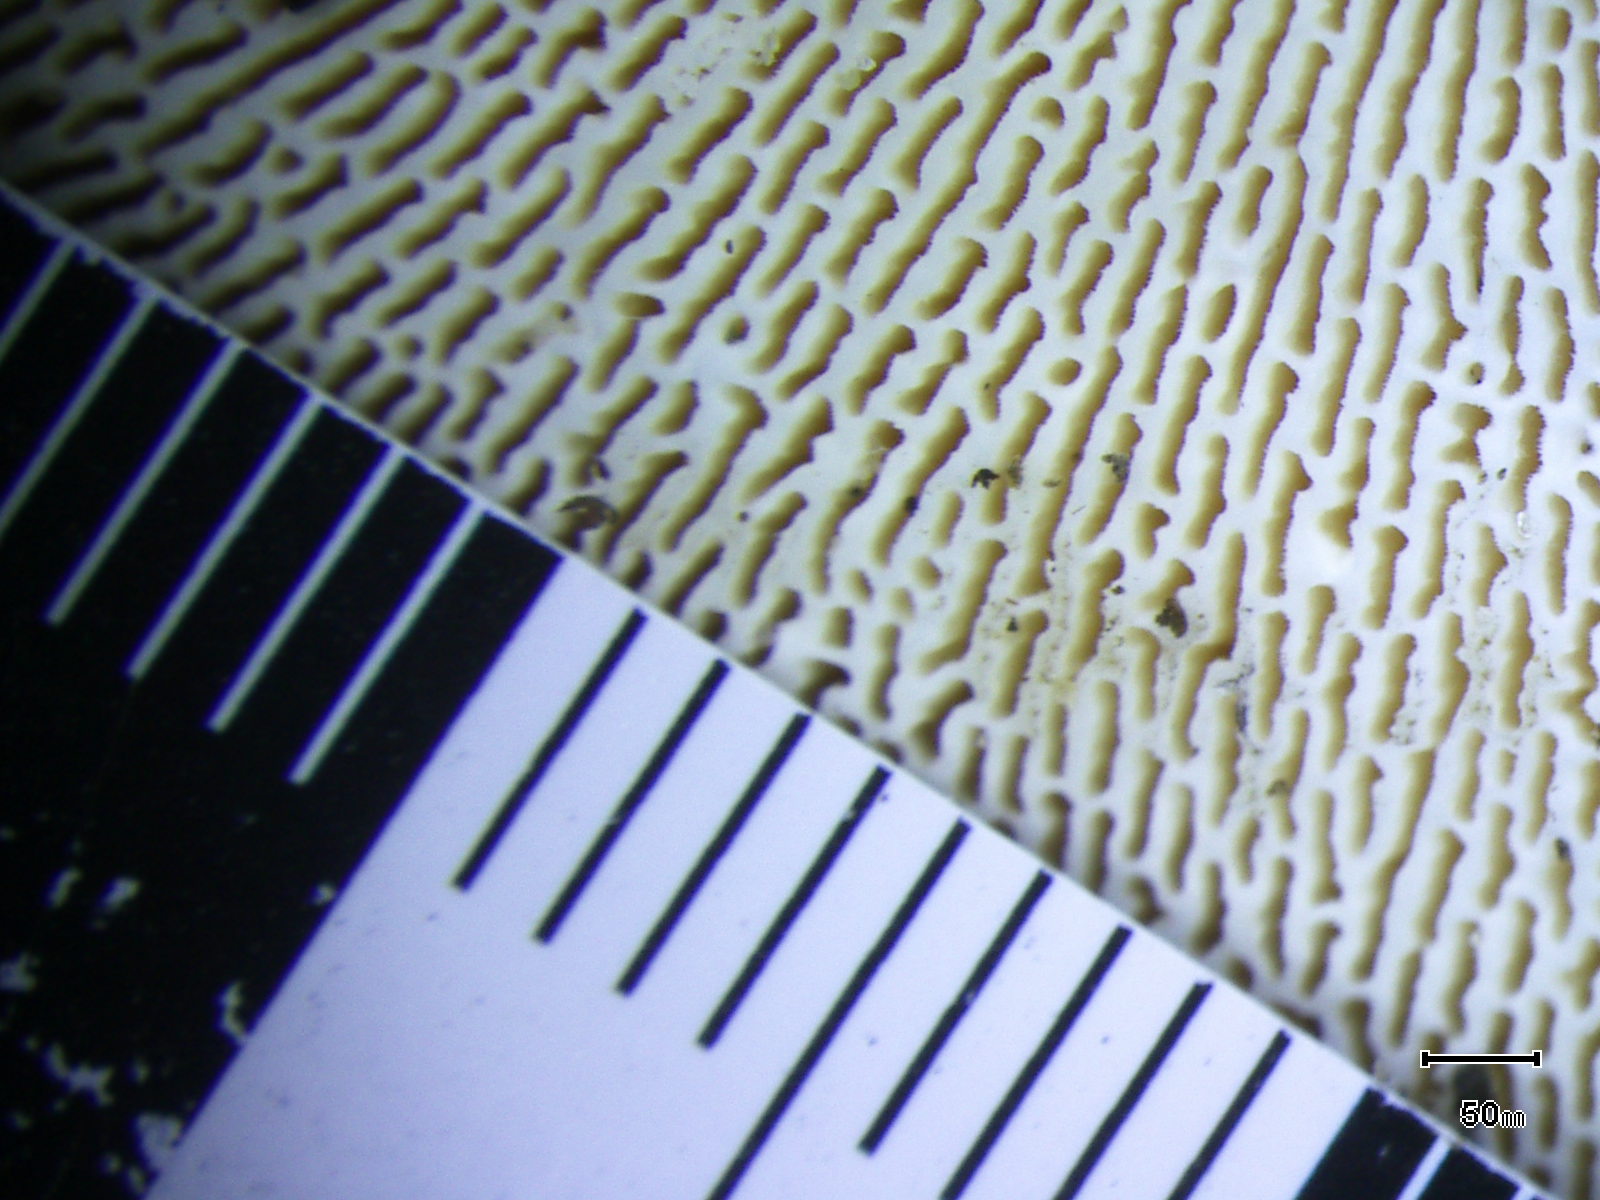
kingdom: Fungi
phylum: Basidiomycota
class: Agaricomycetes
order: Polyporales
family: Polyporaceae
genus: Trametes
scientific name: Trametes gibbosa
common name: puklet læderporesvamp
